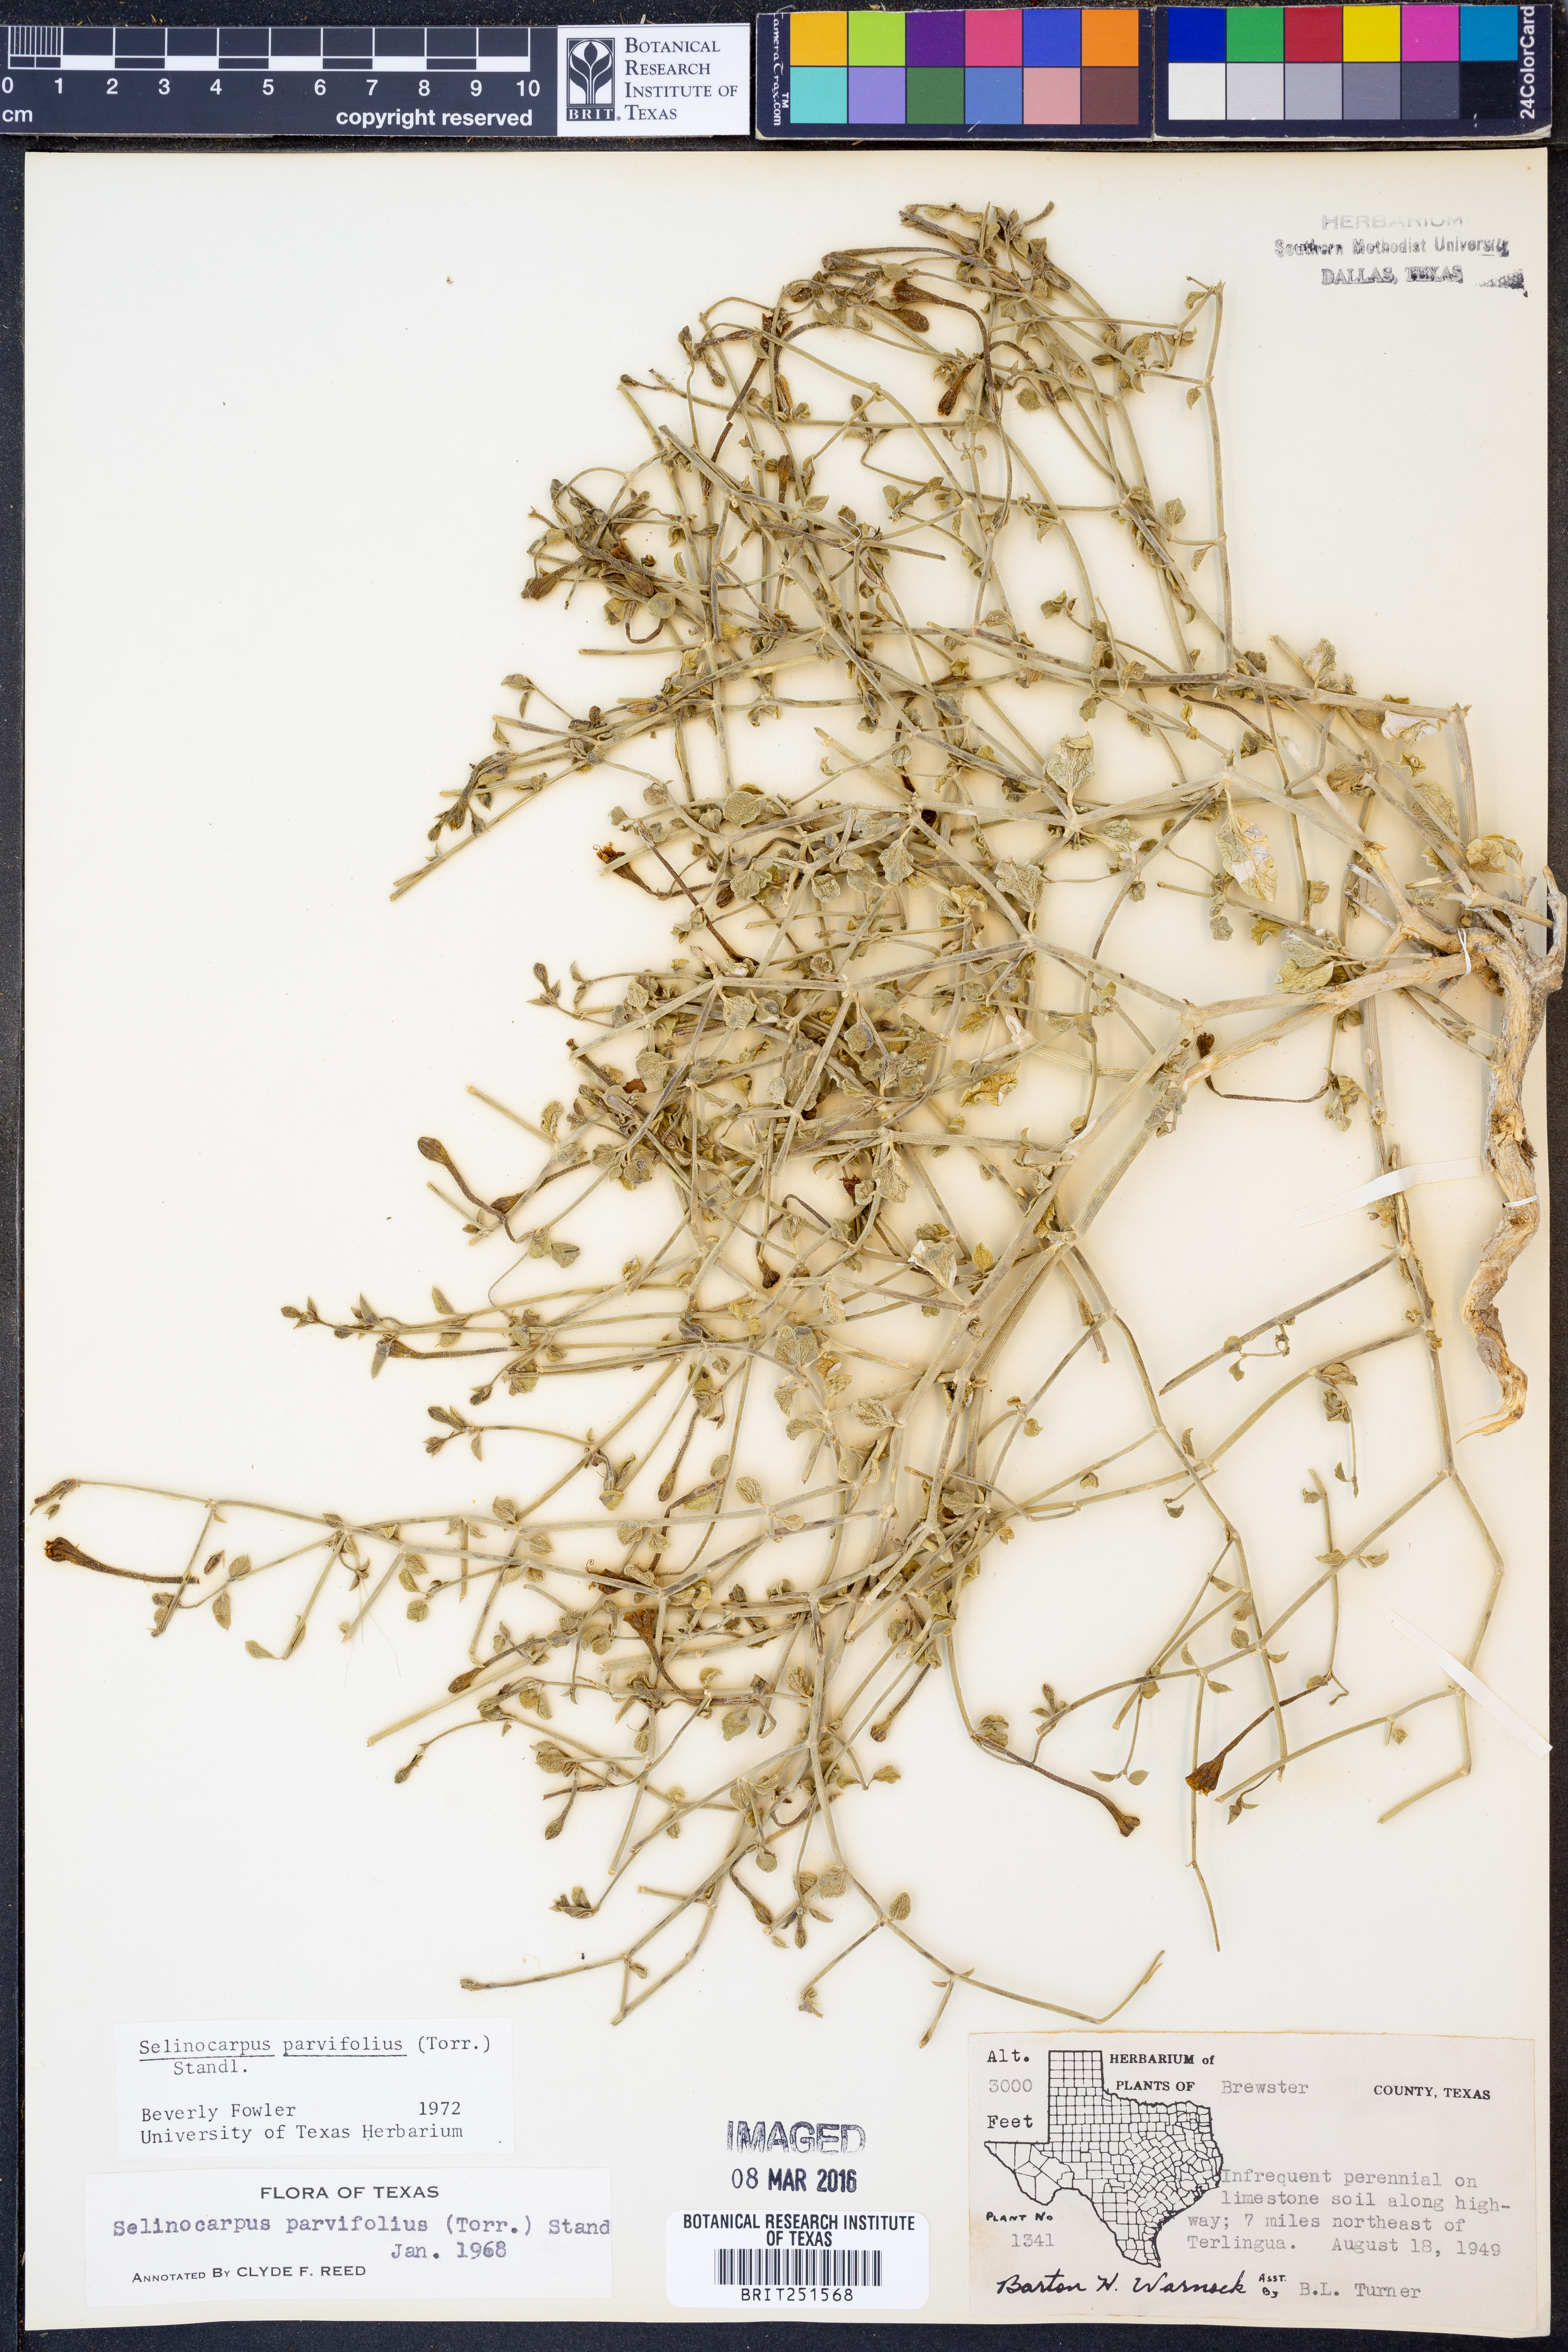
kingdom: Plantae
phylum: Tracheophyta
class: Magnoliopsida
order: Caryophyllales
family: Nyctaginaceae
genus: Acleisanthes
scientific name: Acleisanthes parvifolia
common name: Littleleaf moonpod
